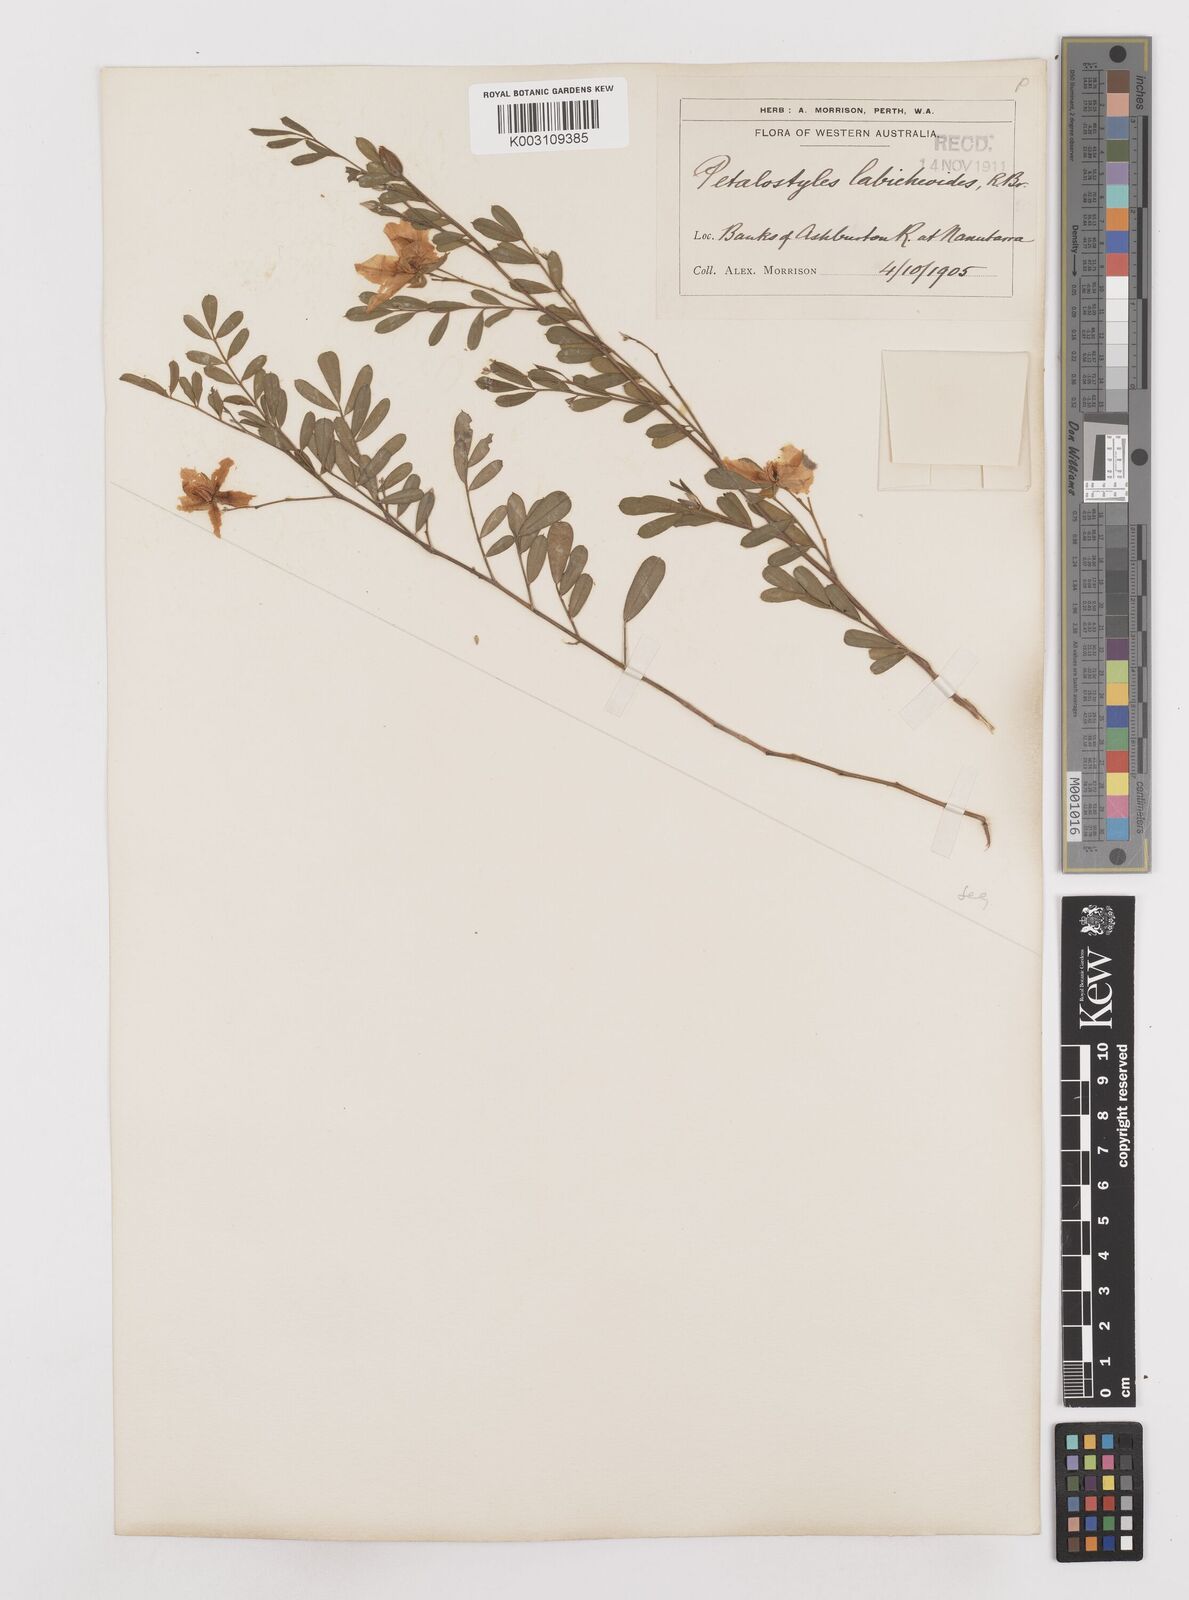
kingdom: Plantae
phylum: Tracheophyta
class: Magnoliopsida
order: Fabales
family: Fabaceae
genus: Petalostylis
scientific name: Petalostylis labicheoides
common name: Butterfly bush
